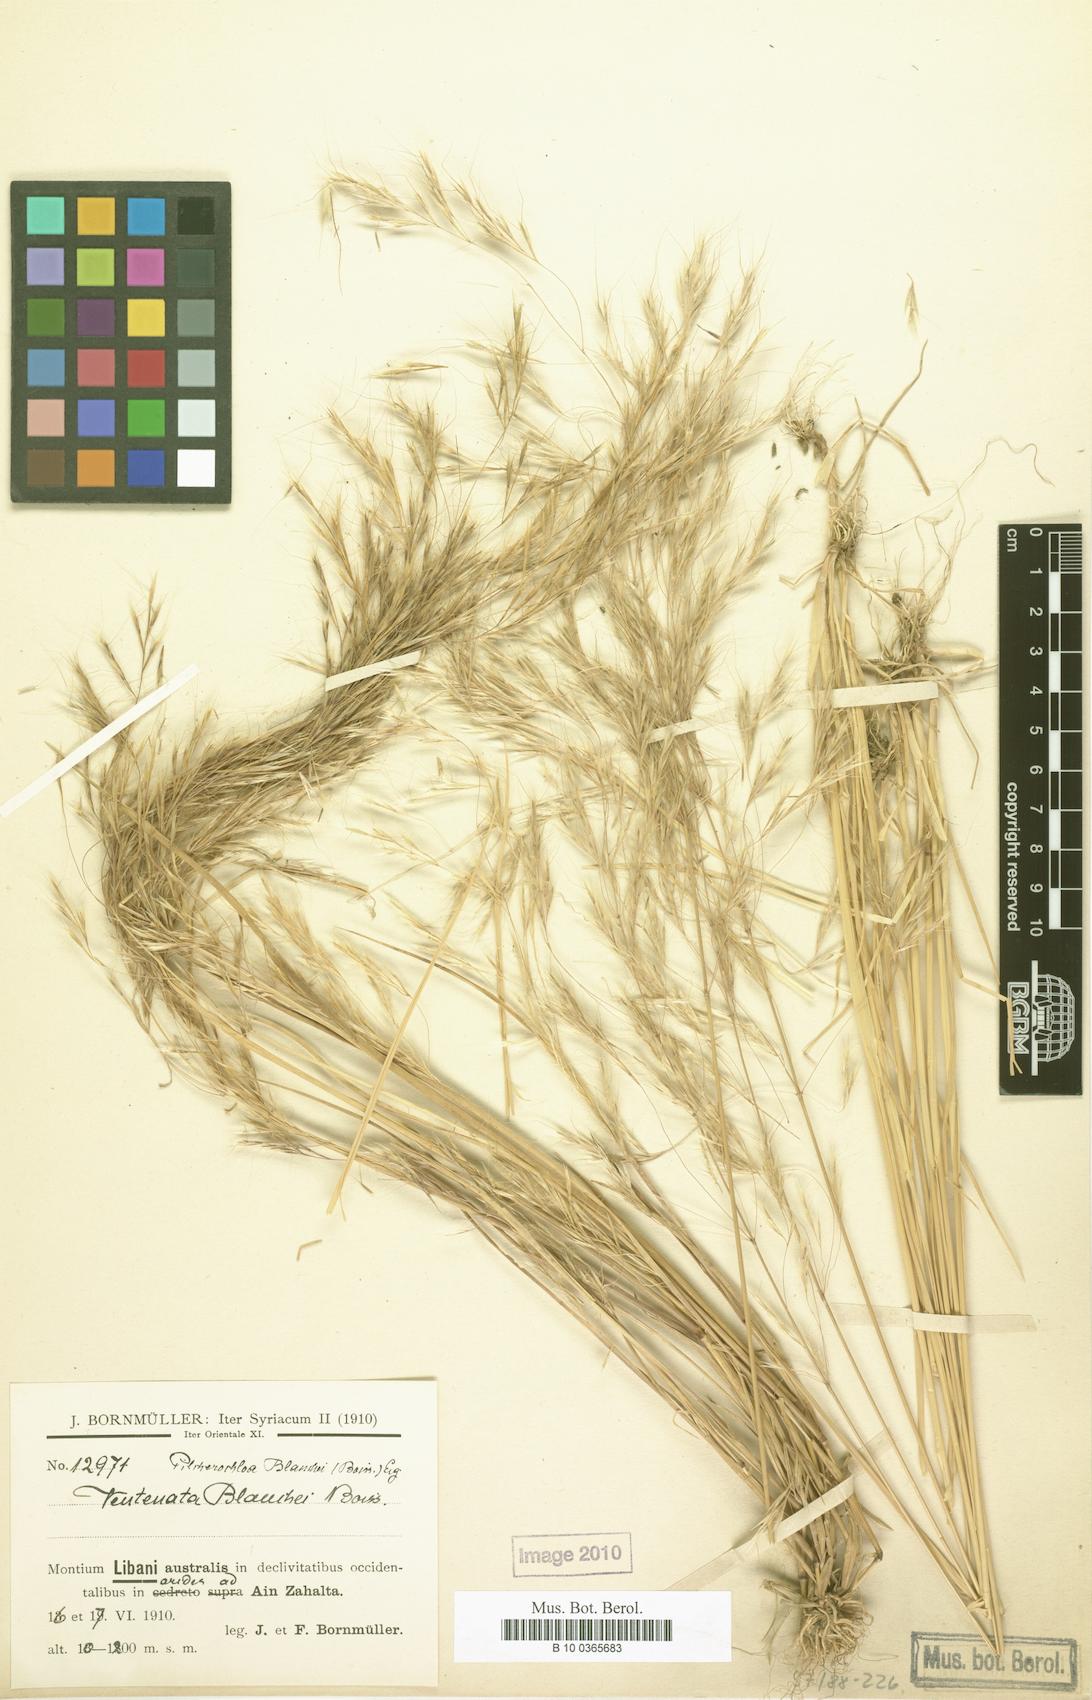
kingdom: Plantae
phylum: Tracheophyta
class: Liliopsida
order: Poales
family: Poaceae
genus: Ventenata
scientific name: Ventenata blanchei
